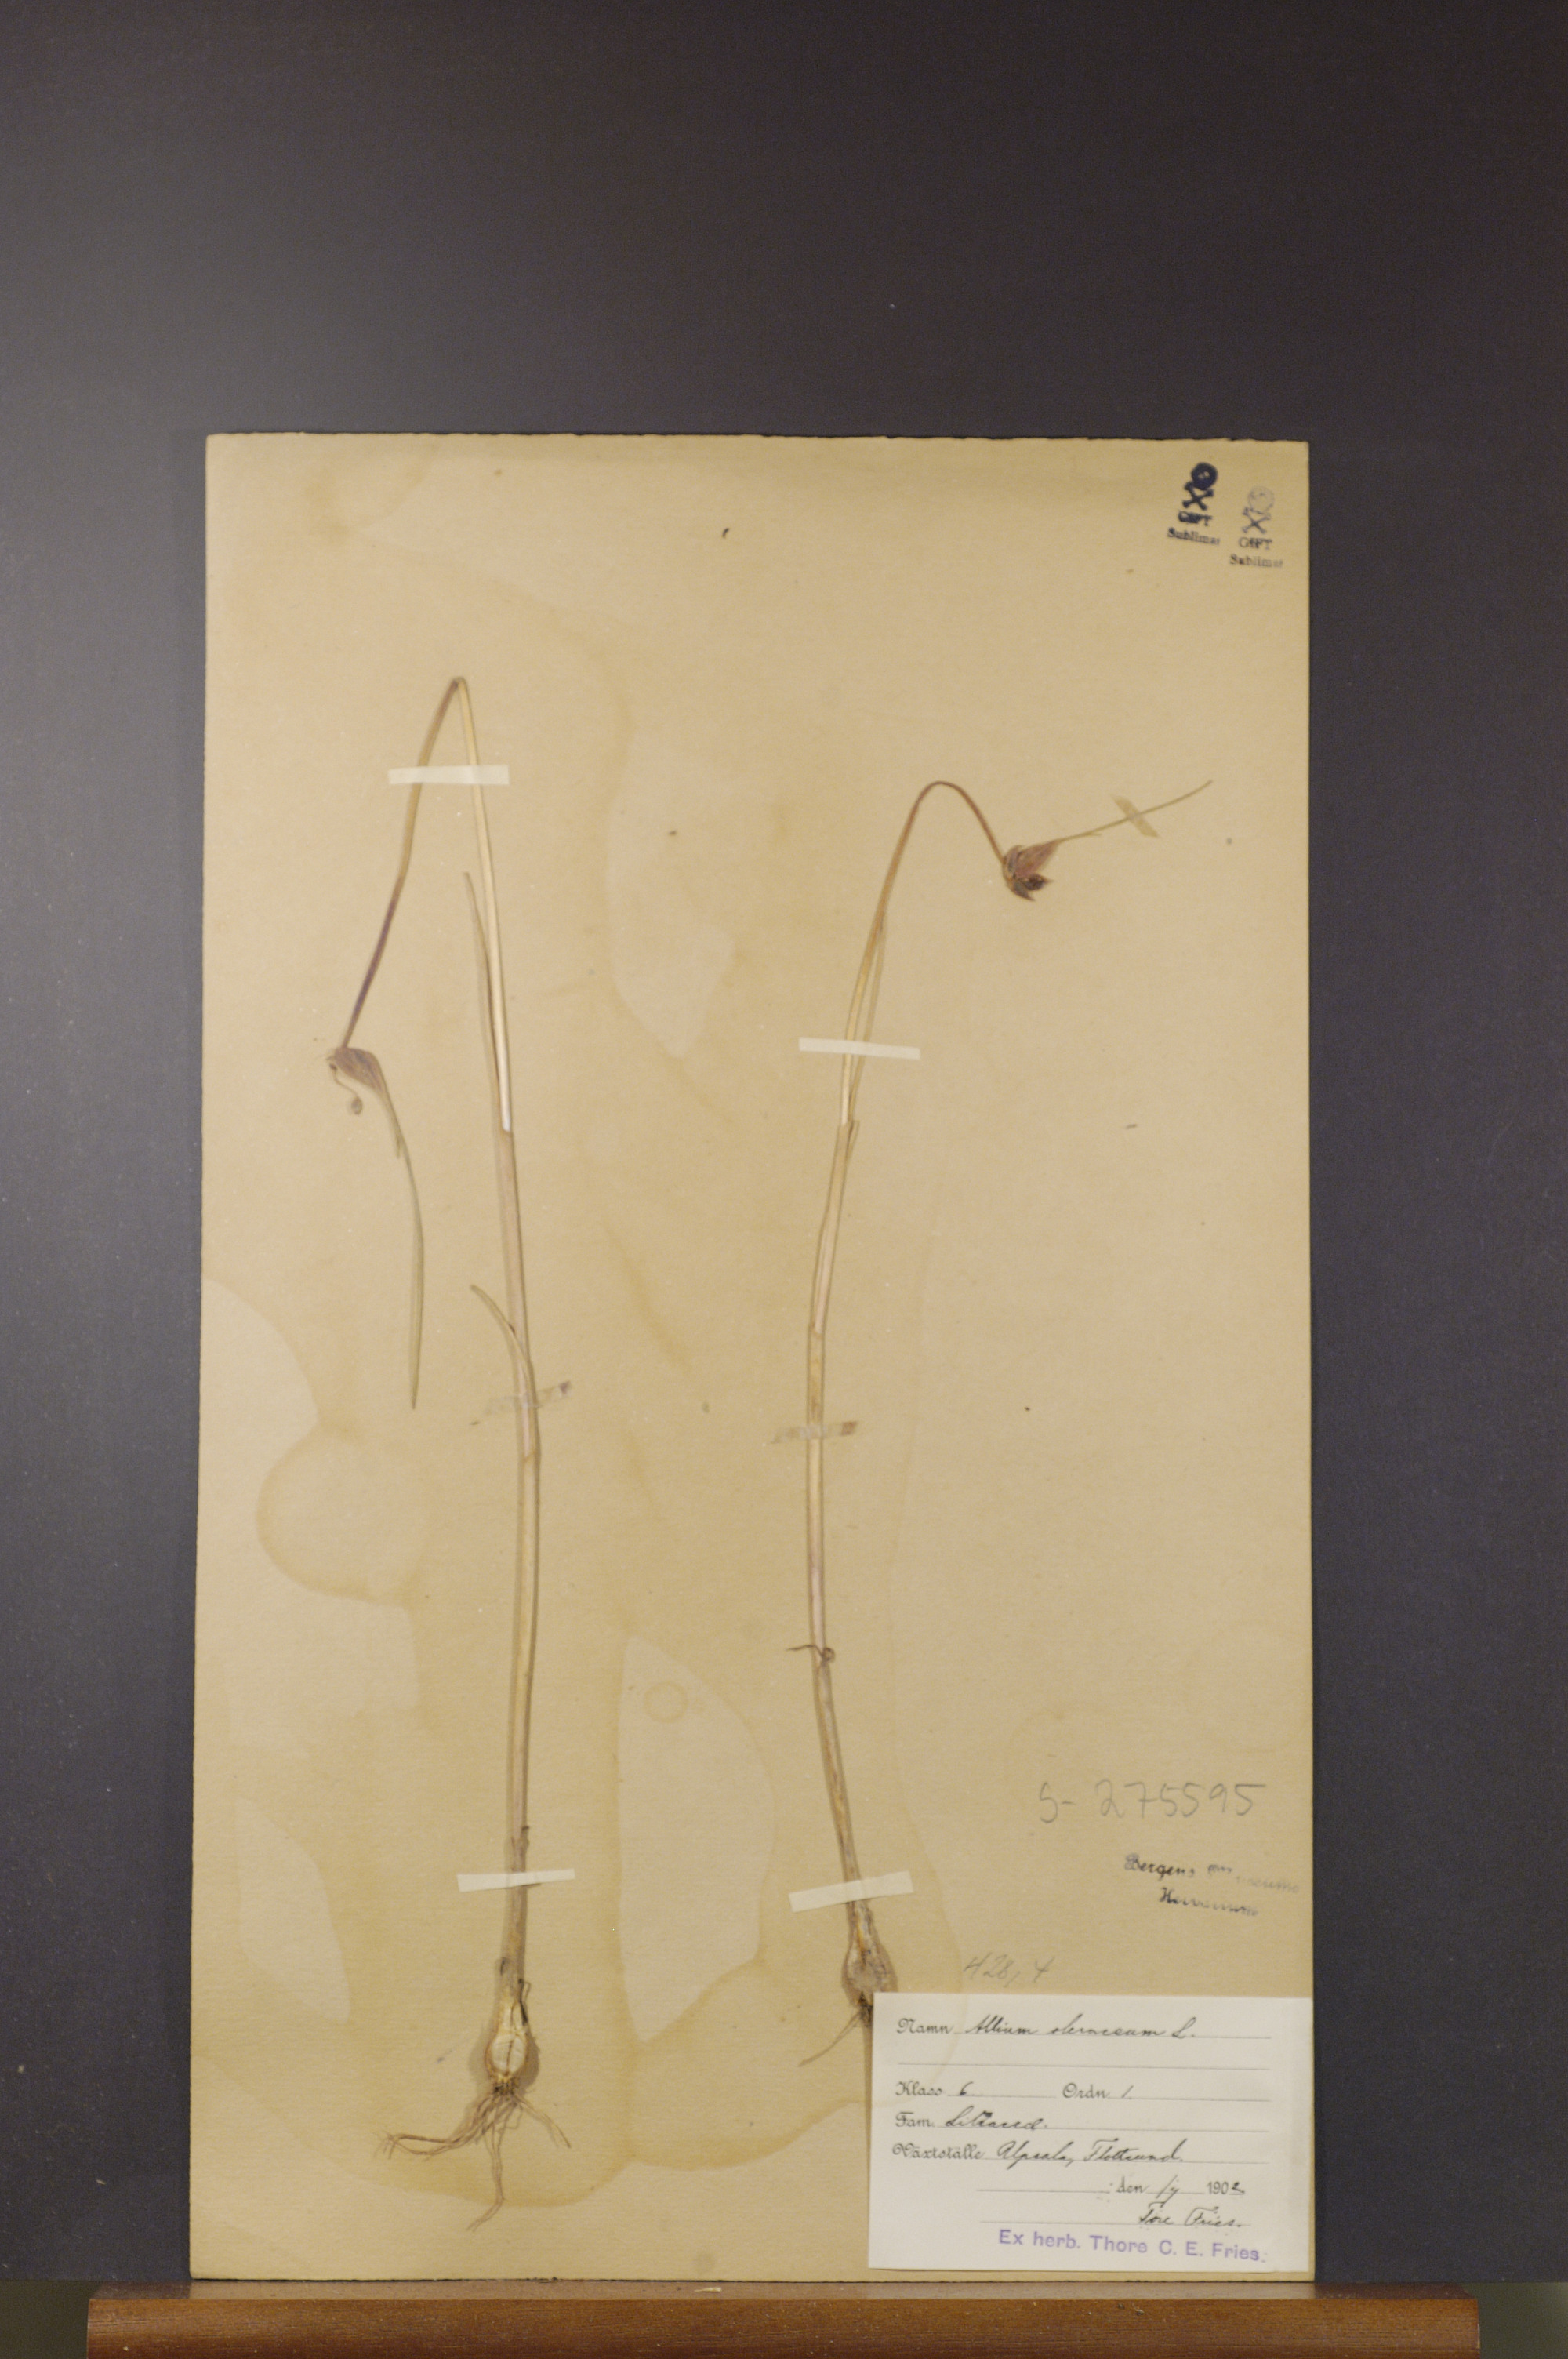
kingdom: Plantae
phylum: Tracheophyta
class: Liliopsida
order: Asparagales
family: Amaryllidaceae
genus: Allium
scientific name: Allium oleraceum
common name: Field garlic
